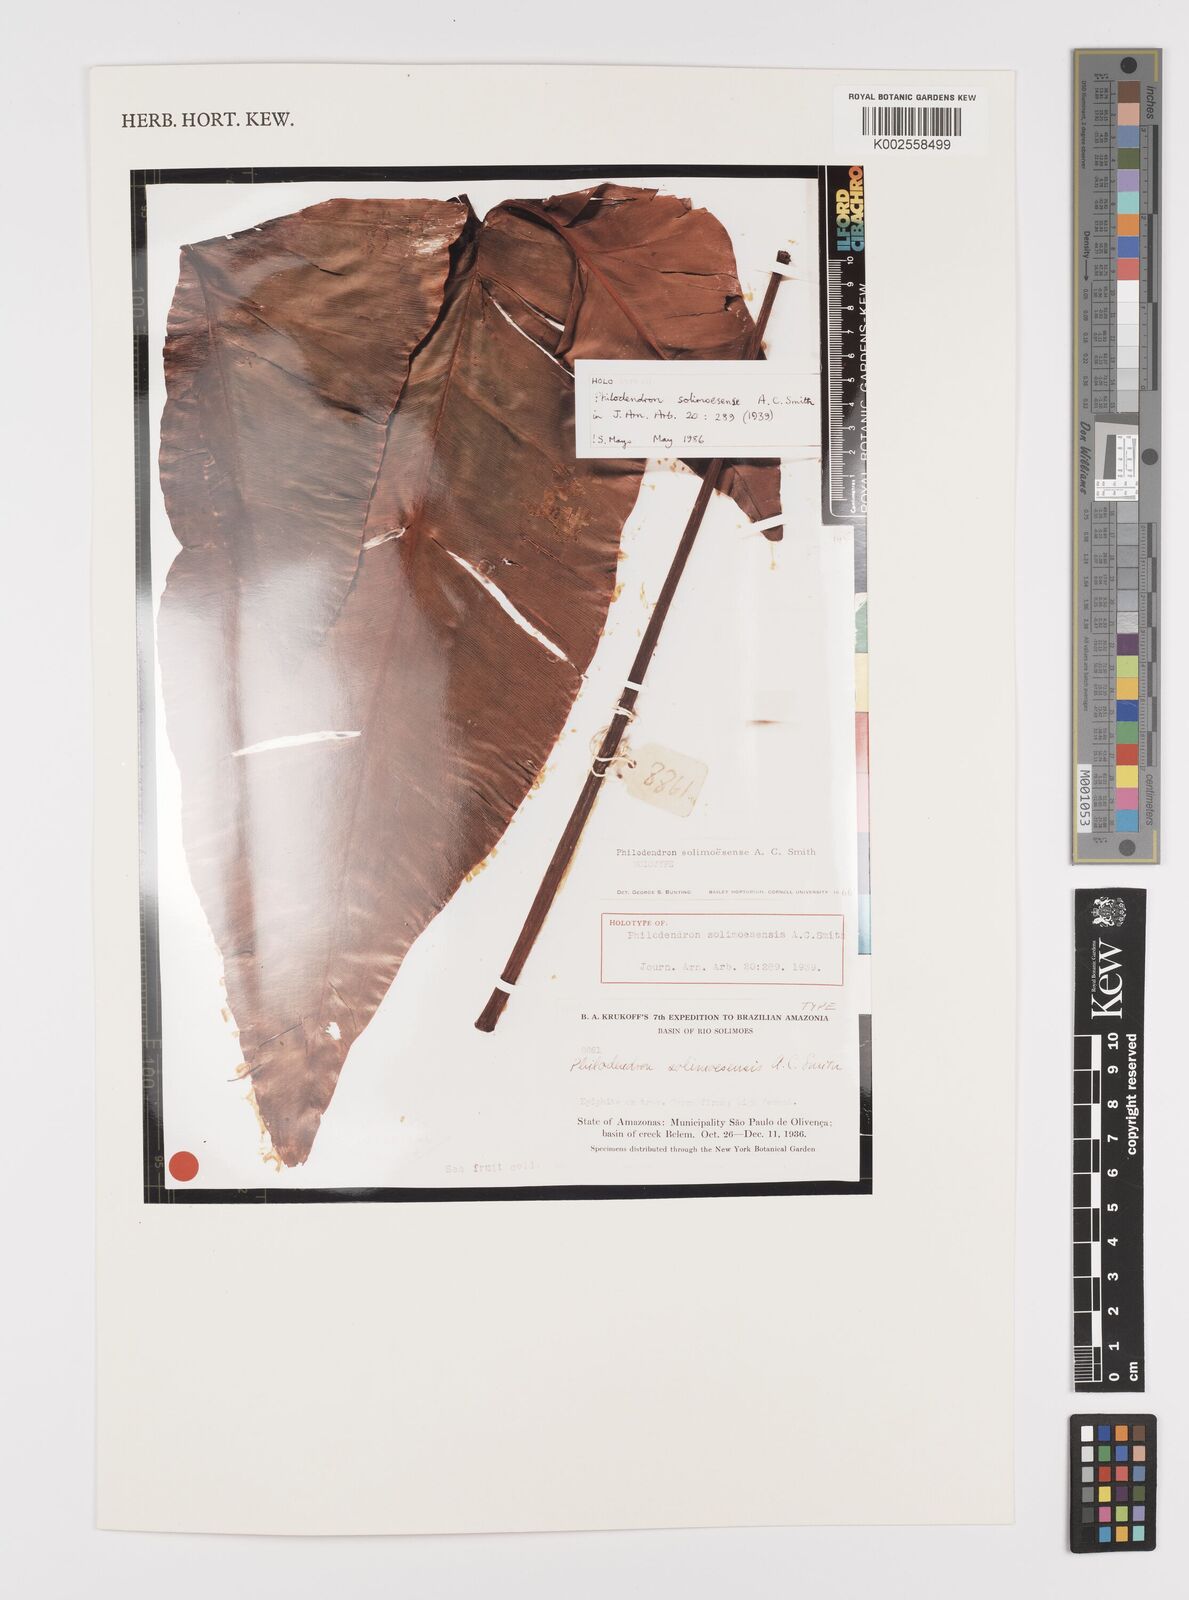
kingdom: Plantae
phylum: Tracheophyta
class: Liliopsida
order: Alismatales
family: Araceae
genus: Thaumatophyllum
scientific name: Thaumatophyllum solimoesense
